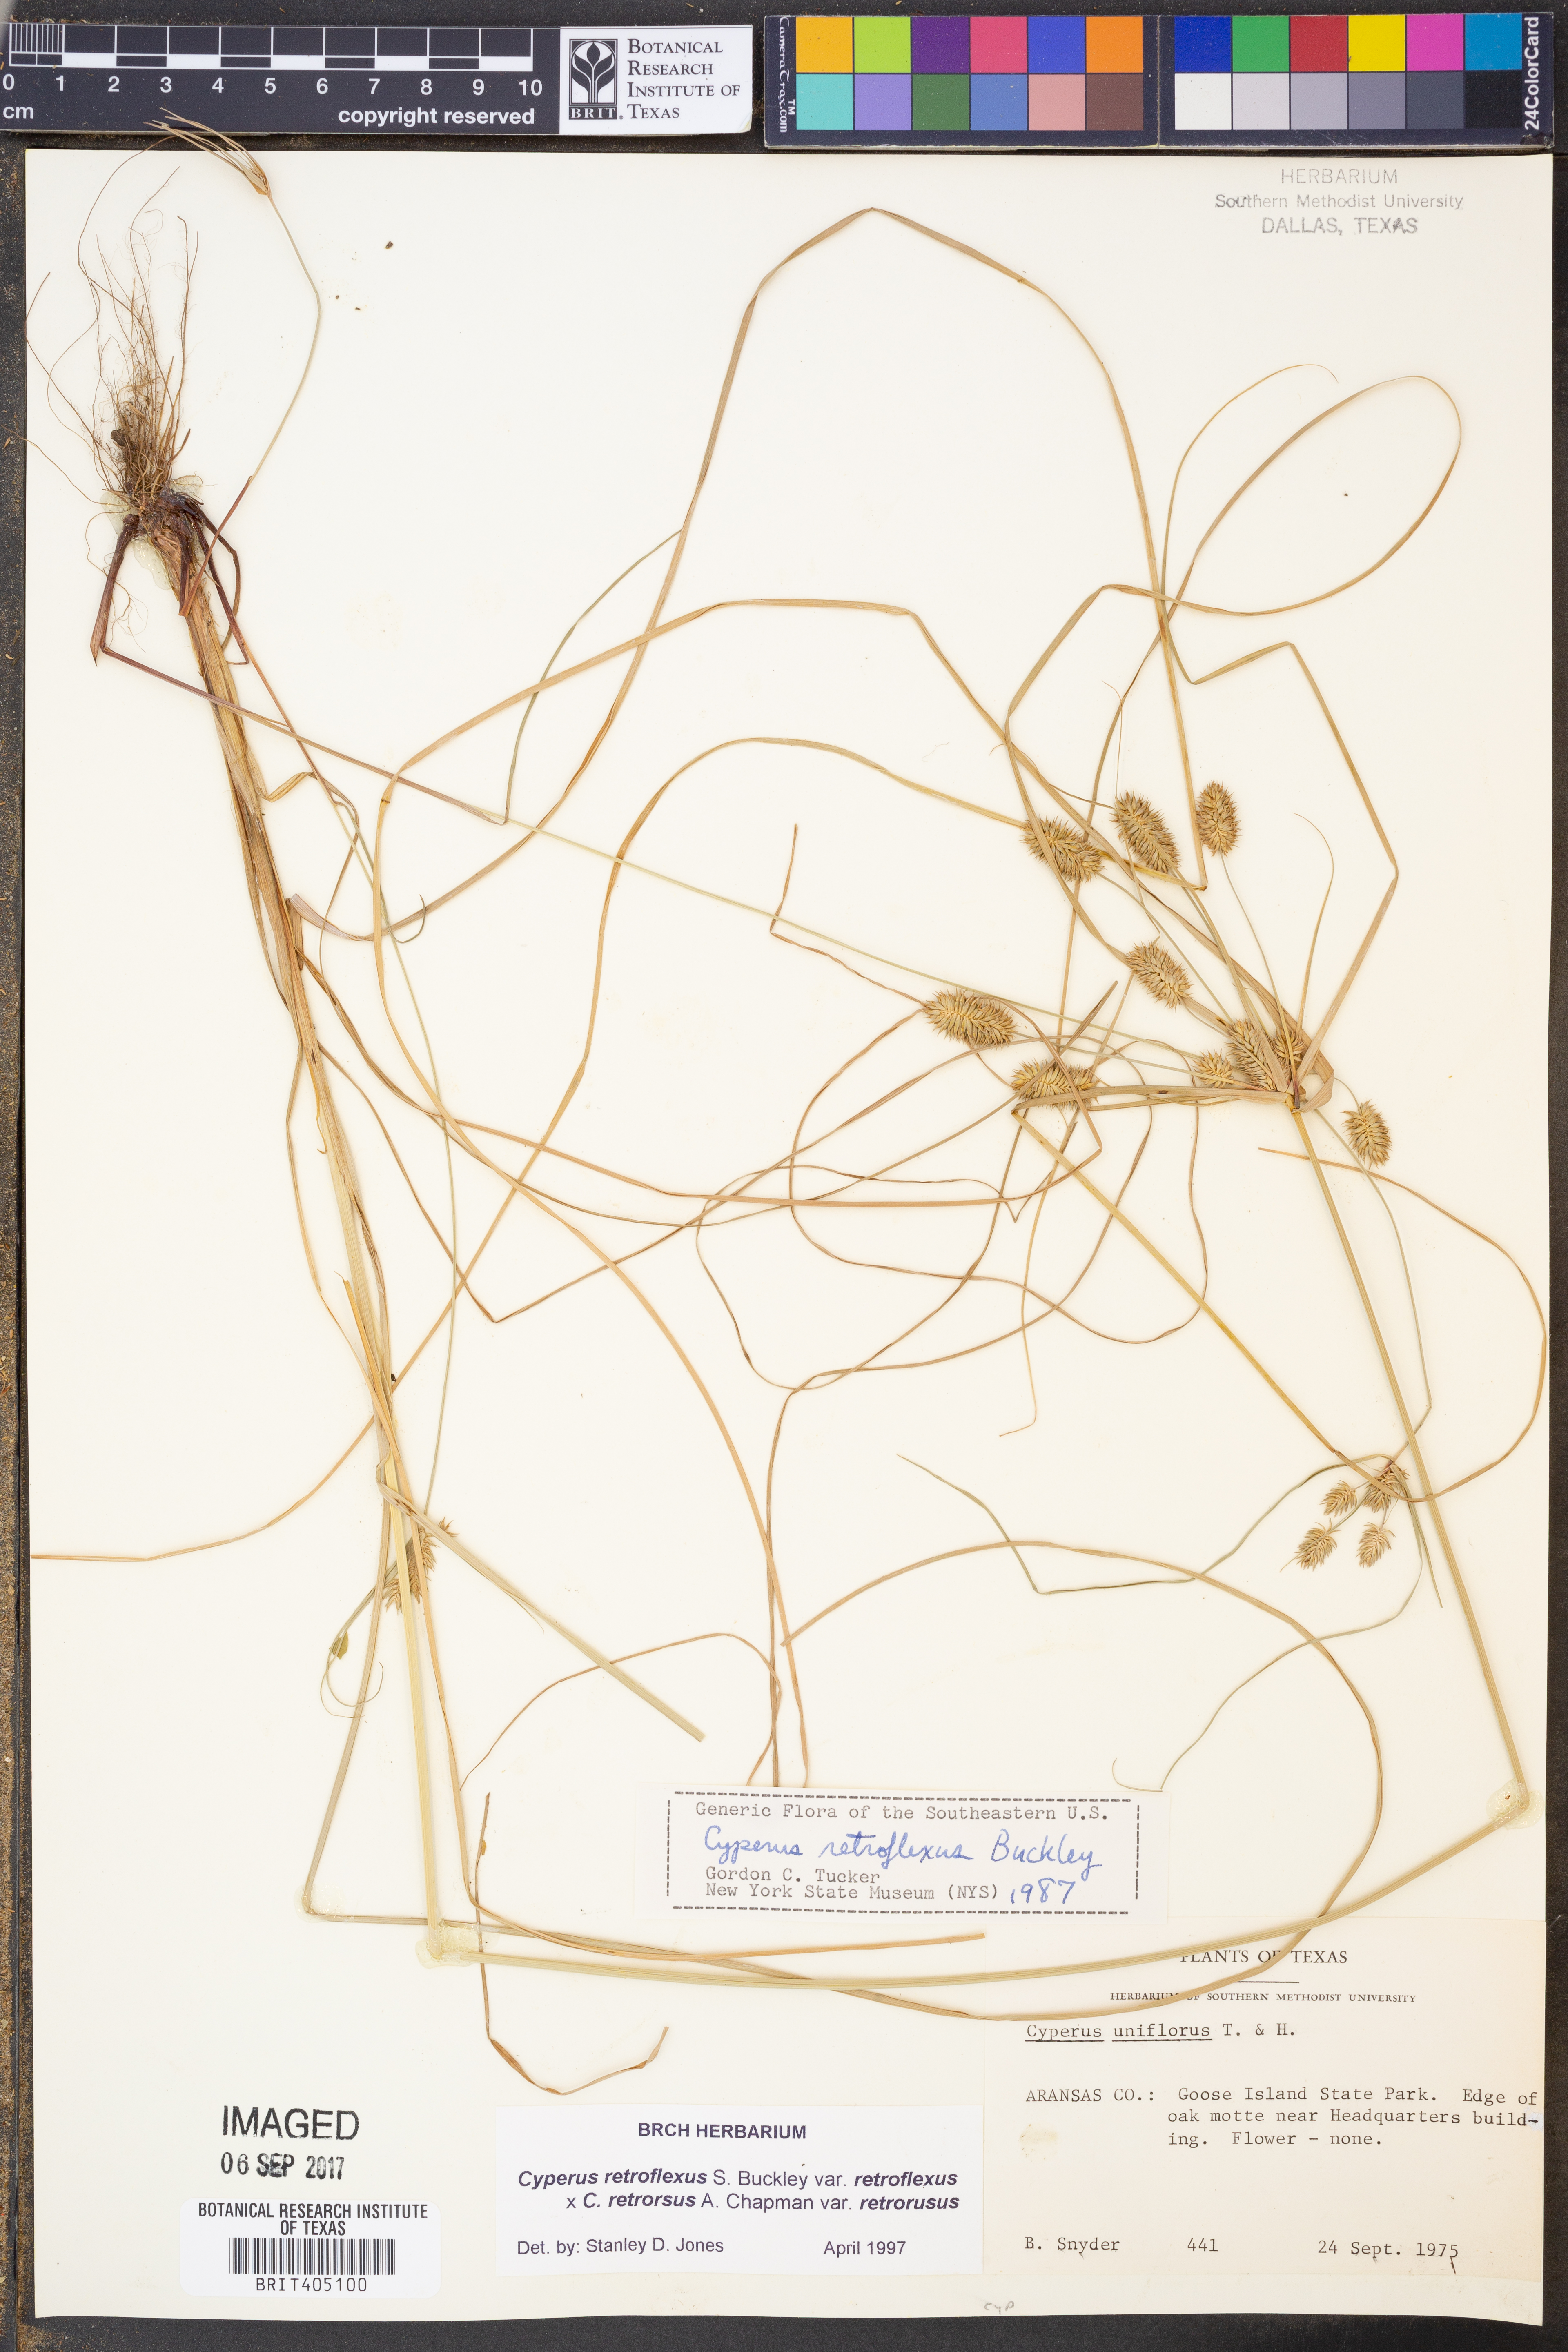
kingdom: Plantae
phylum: Tracheophyta
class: Liliopsida
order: Poales
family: Cyperaceae
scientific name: Cyperaceae
